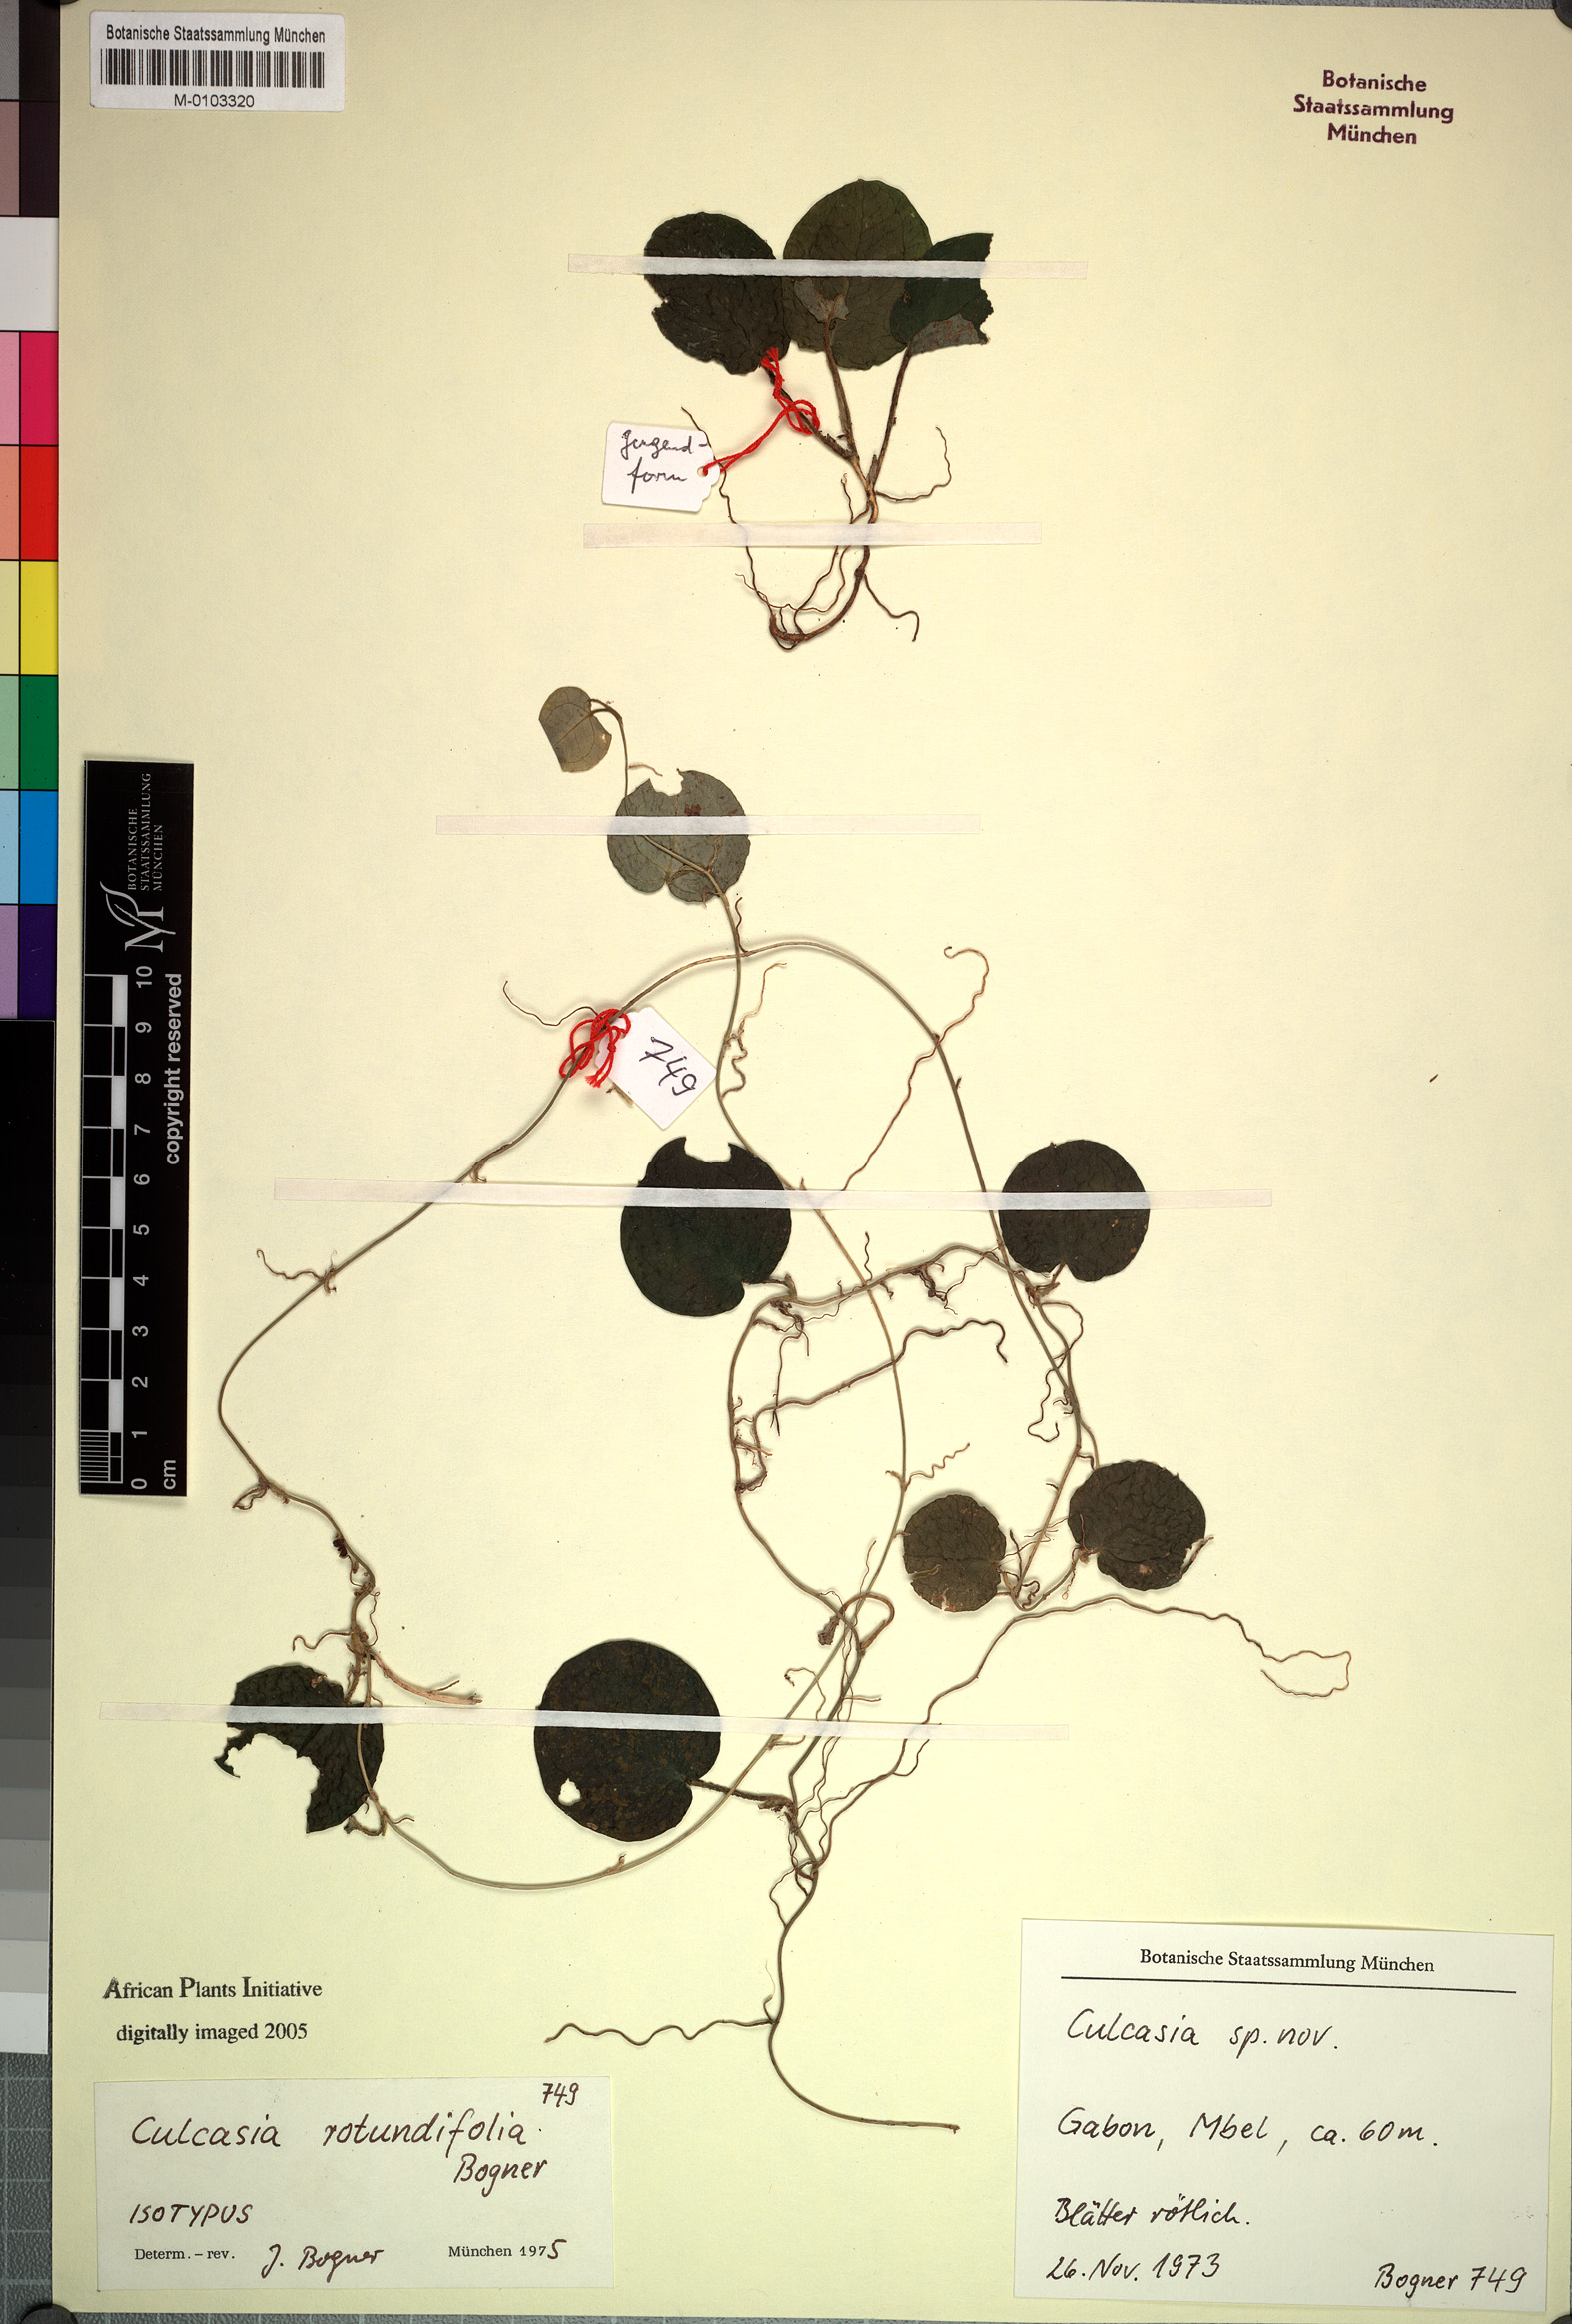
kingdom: Plantae
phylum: Tracheophyta
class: Liliopsida
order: Alismatales
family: Araceae
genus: Culcasia
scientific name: Culcasia rotundifolia
